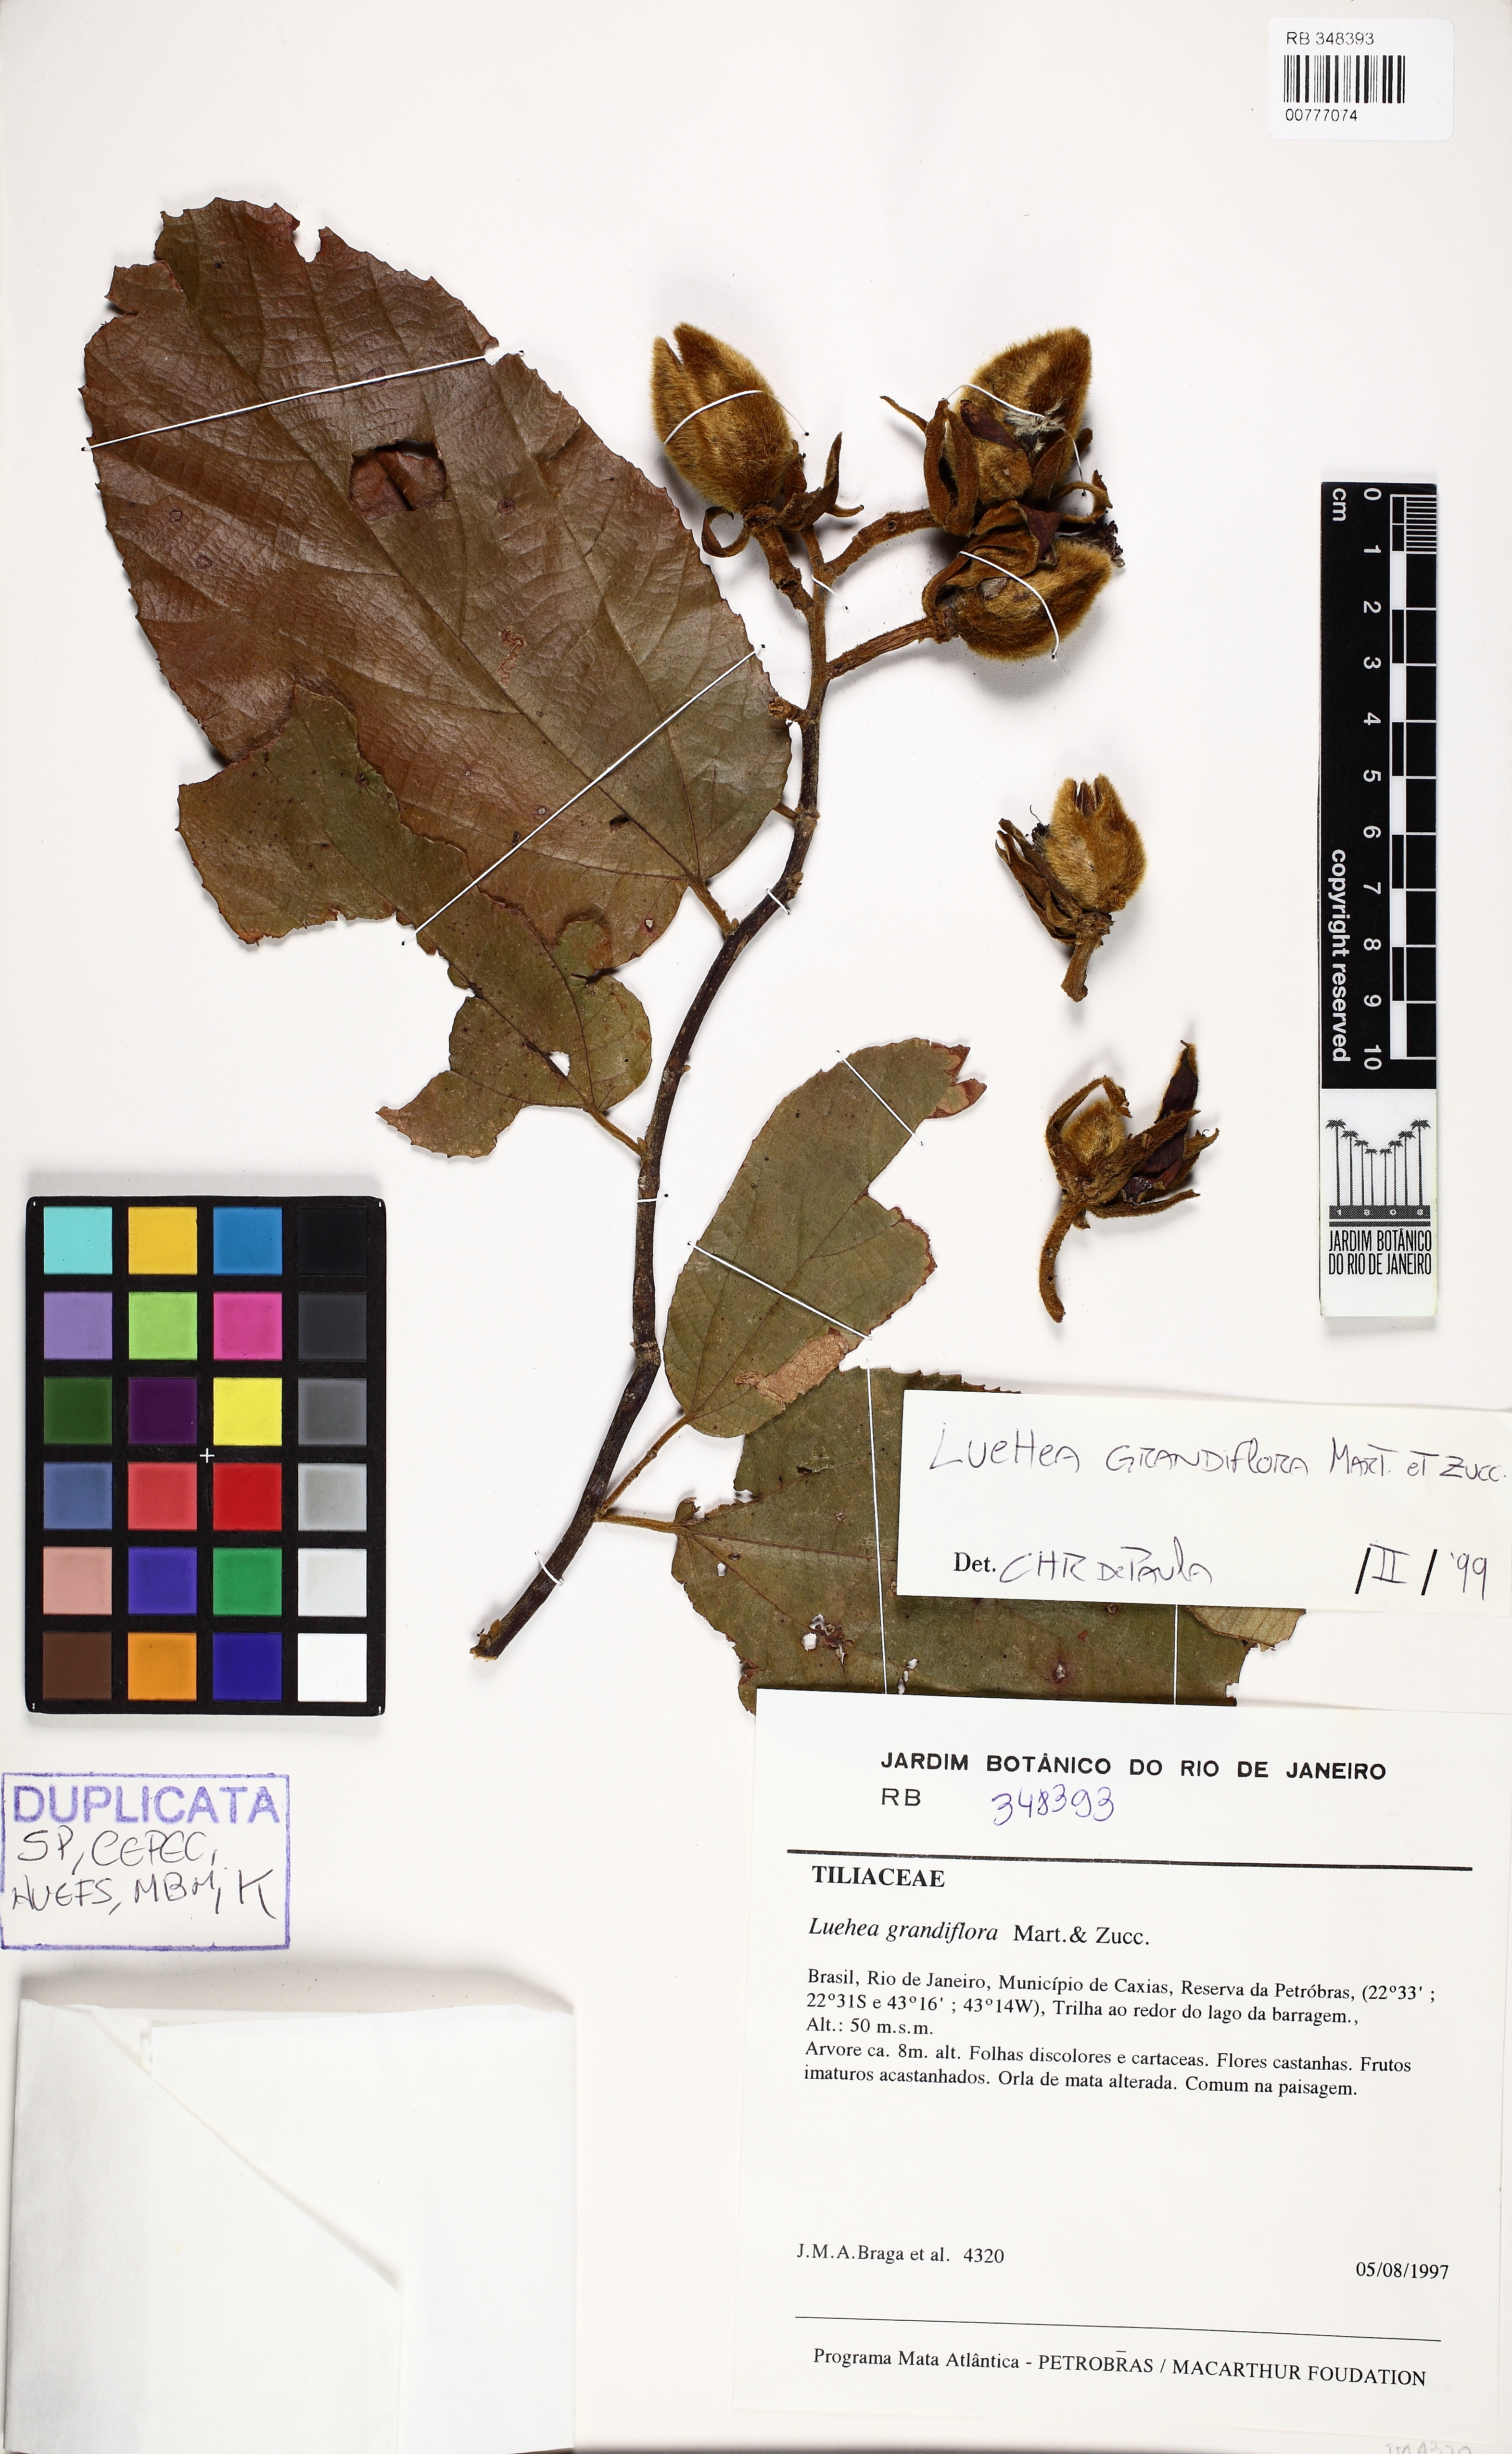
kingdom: Plantae
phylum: Tracheophyta
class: Magnoliopsida
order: Malvales
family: Malvaceae
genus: Luehea
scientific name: Luehea grandiflora
